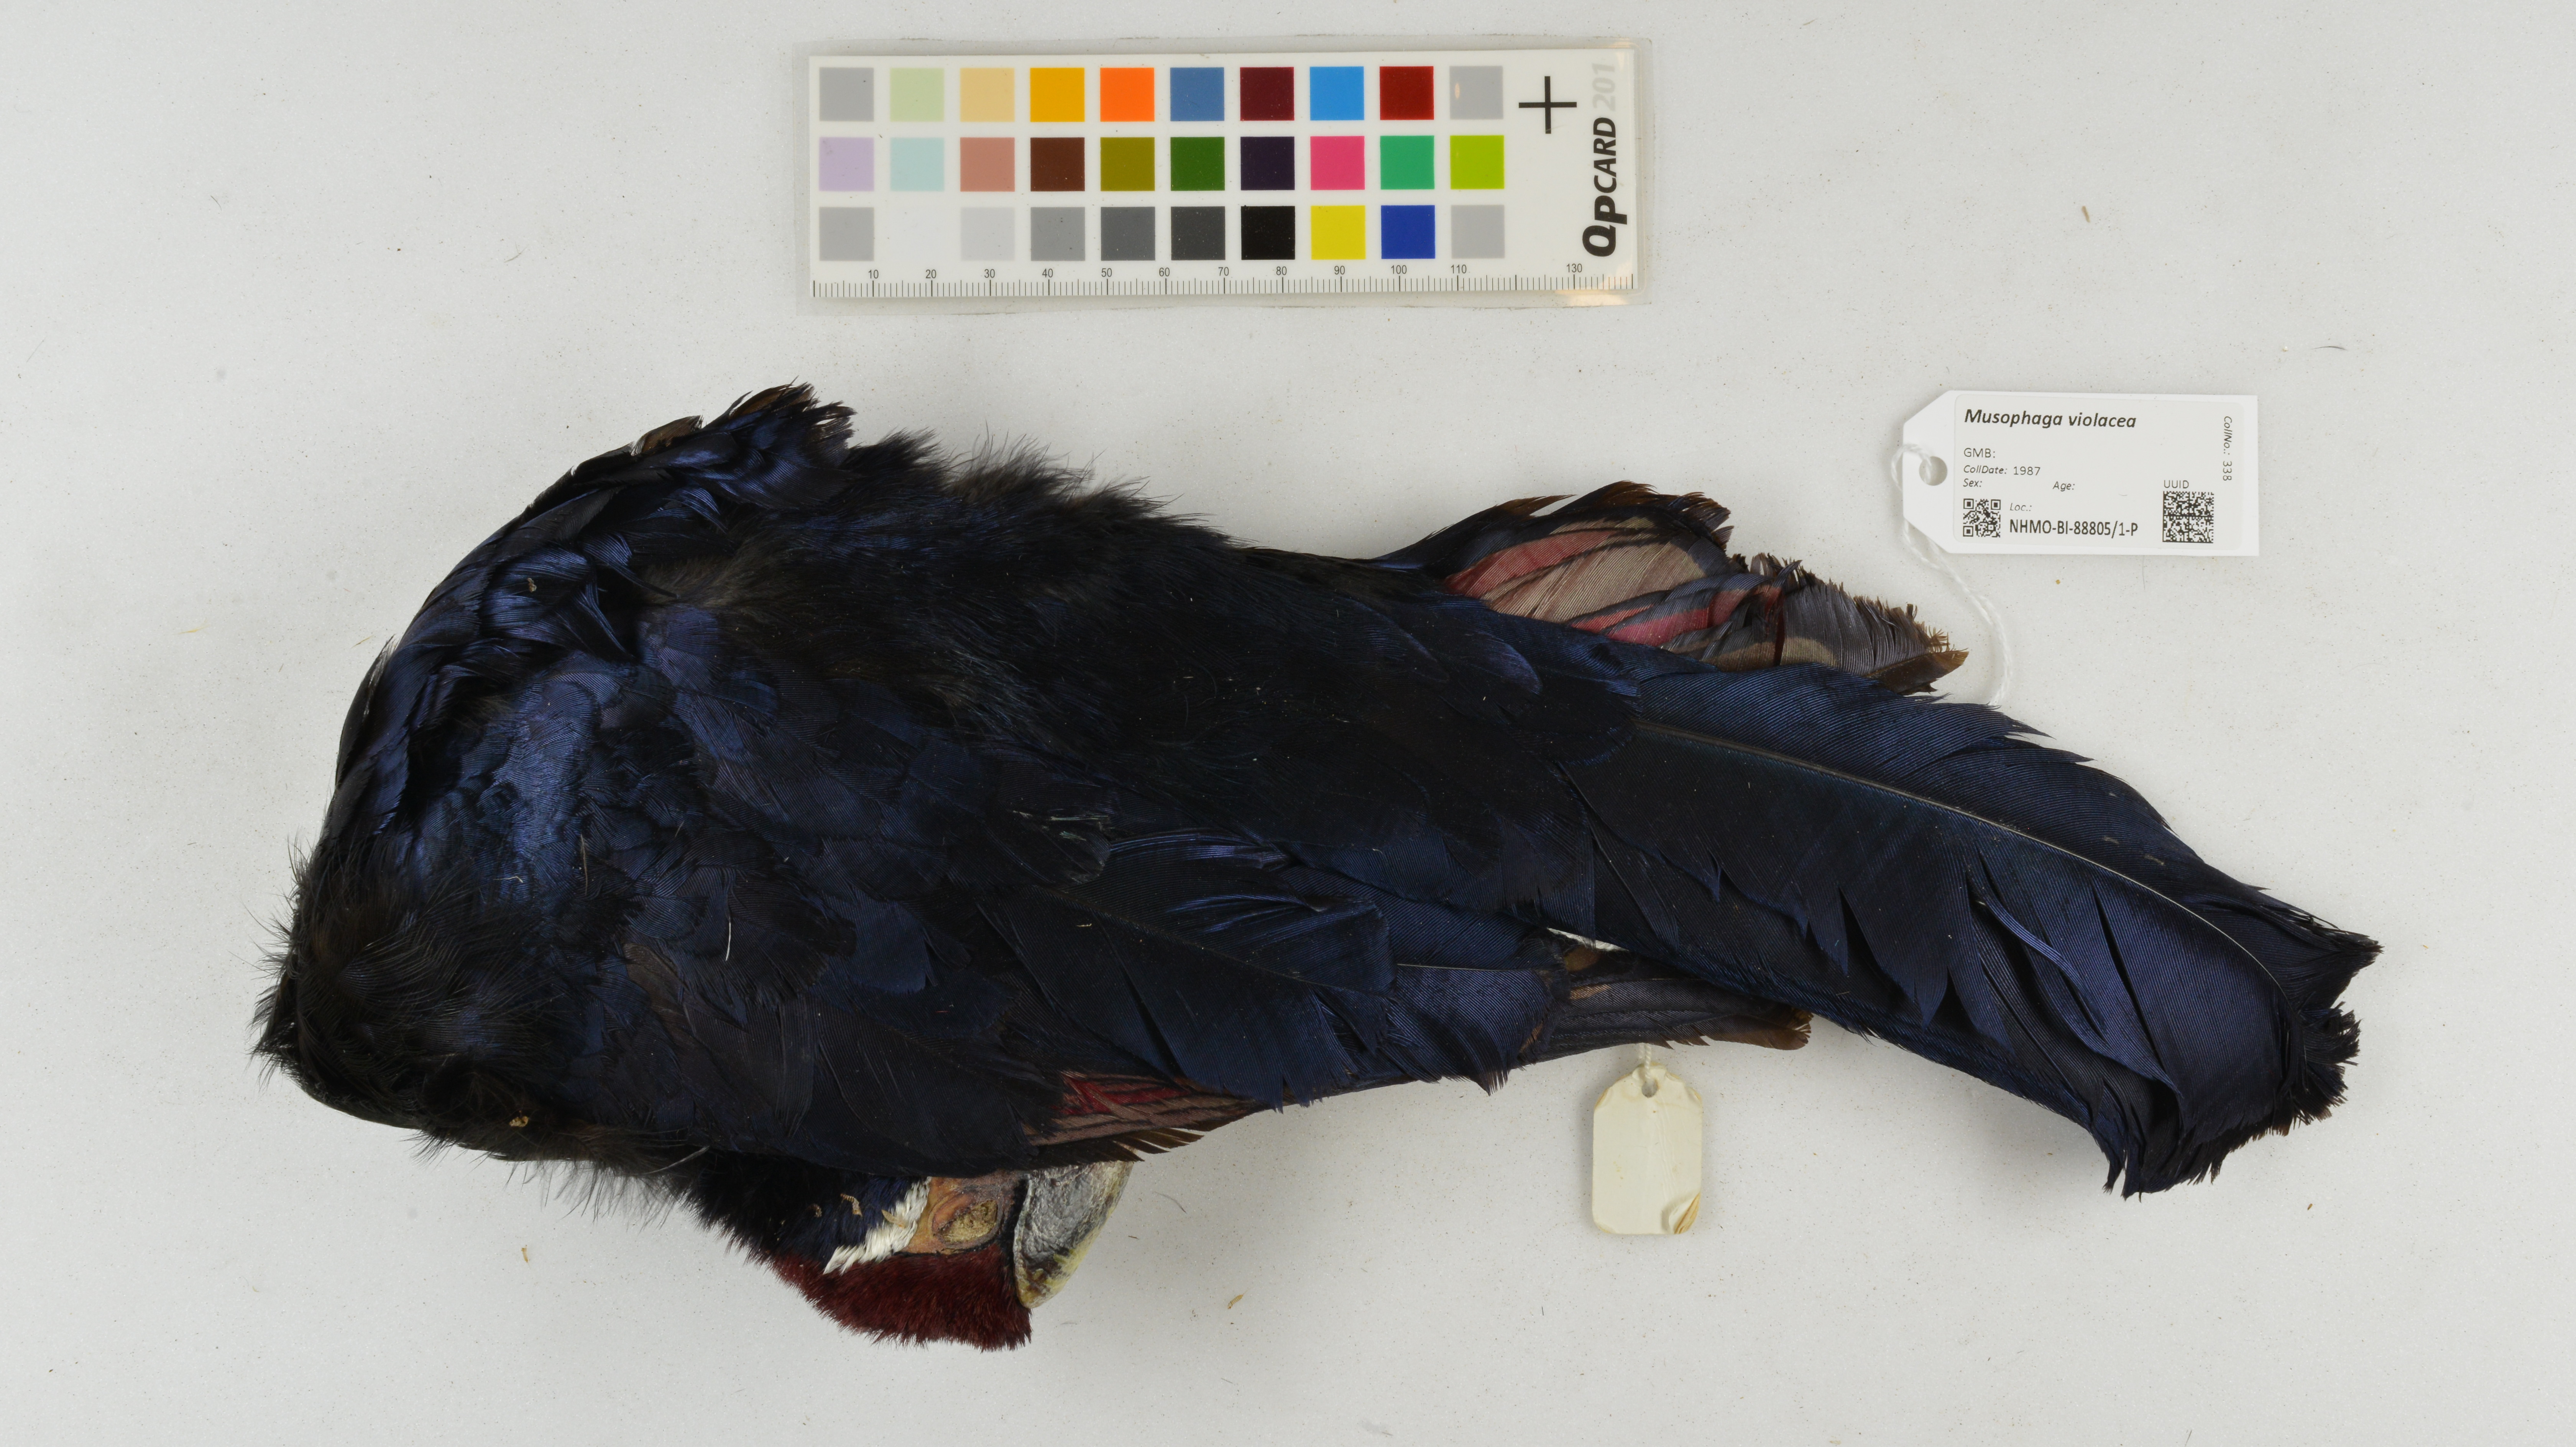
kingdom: Animalia
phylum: Chordata
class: Aves
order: Musophagiformes
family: Musophagidae
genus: Musophaga
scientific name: Musophaga violacea
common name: Violet turaco
